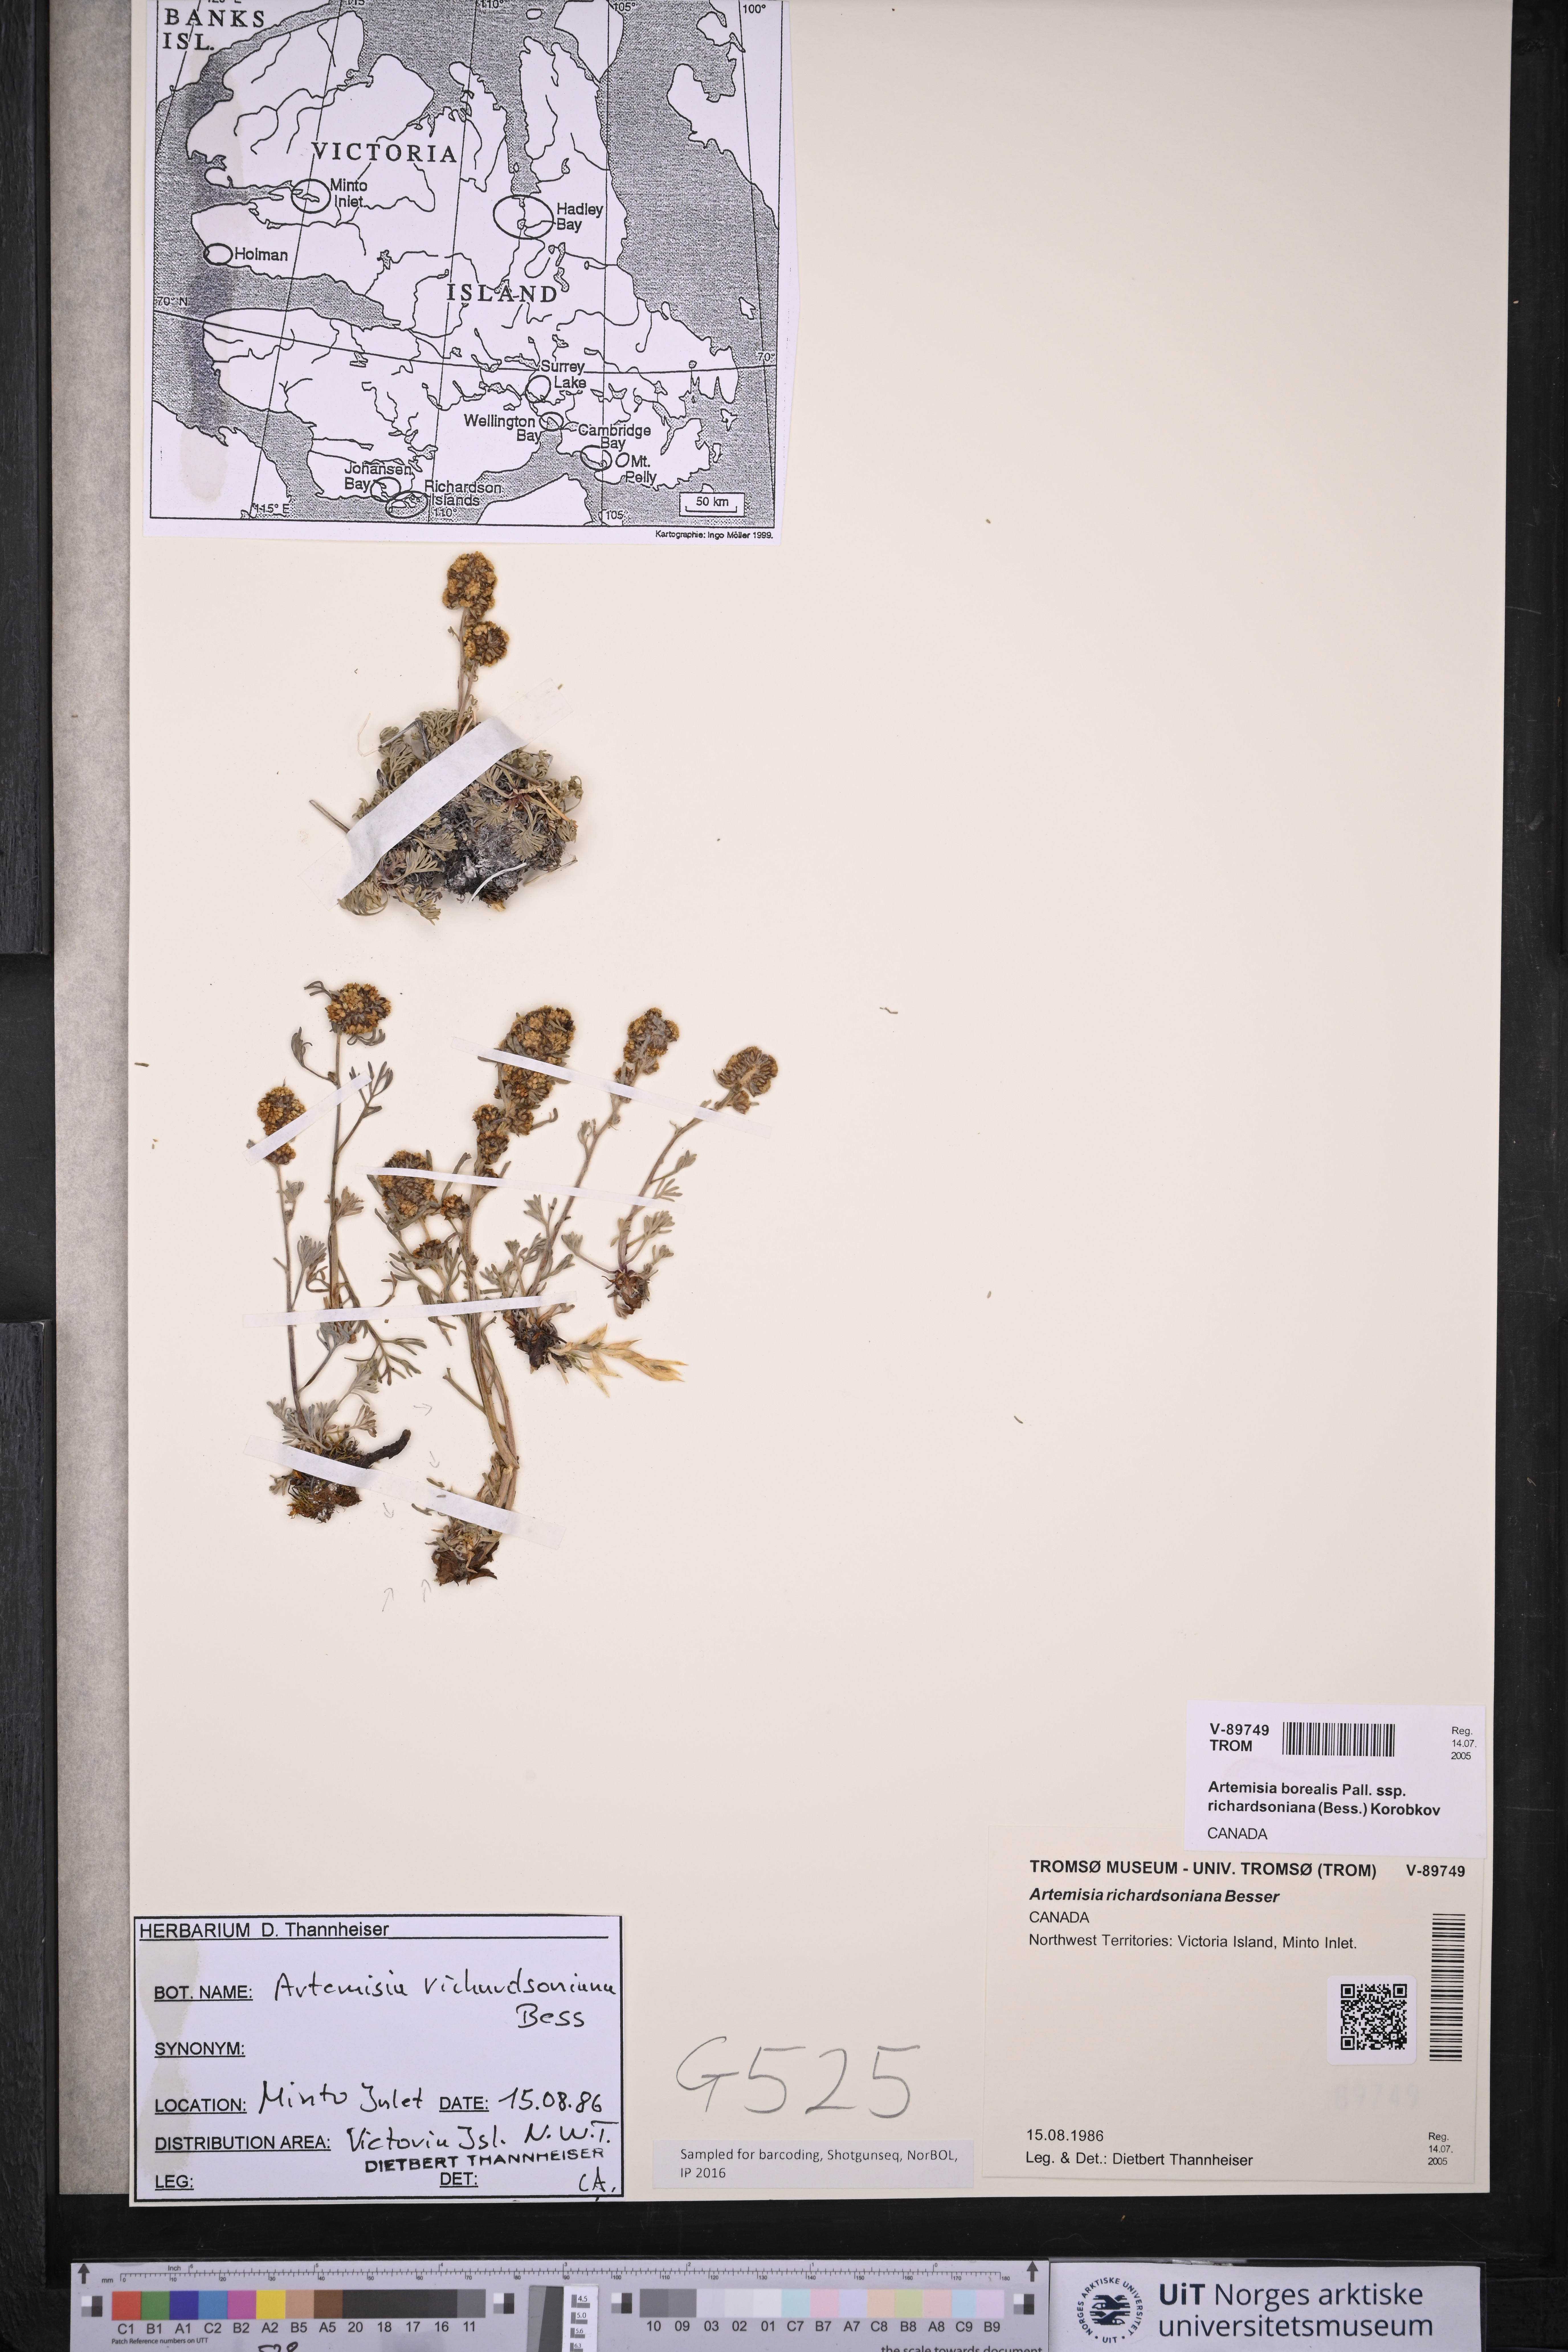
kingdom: Plantae
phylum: Tracheophyta
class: Magnoliopsida
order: Asterales
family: Asteraceae
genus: Artemisia
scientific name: Artemisia borealis
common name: Boreal sage
